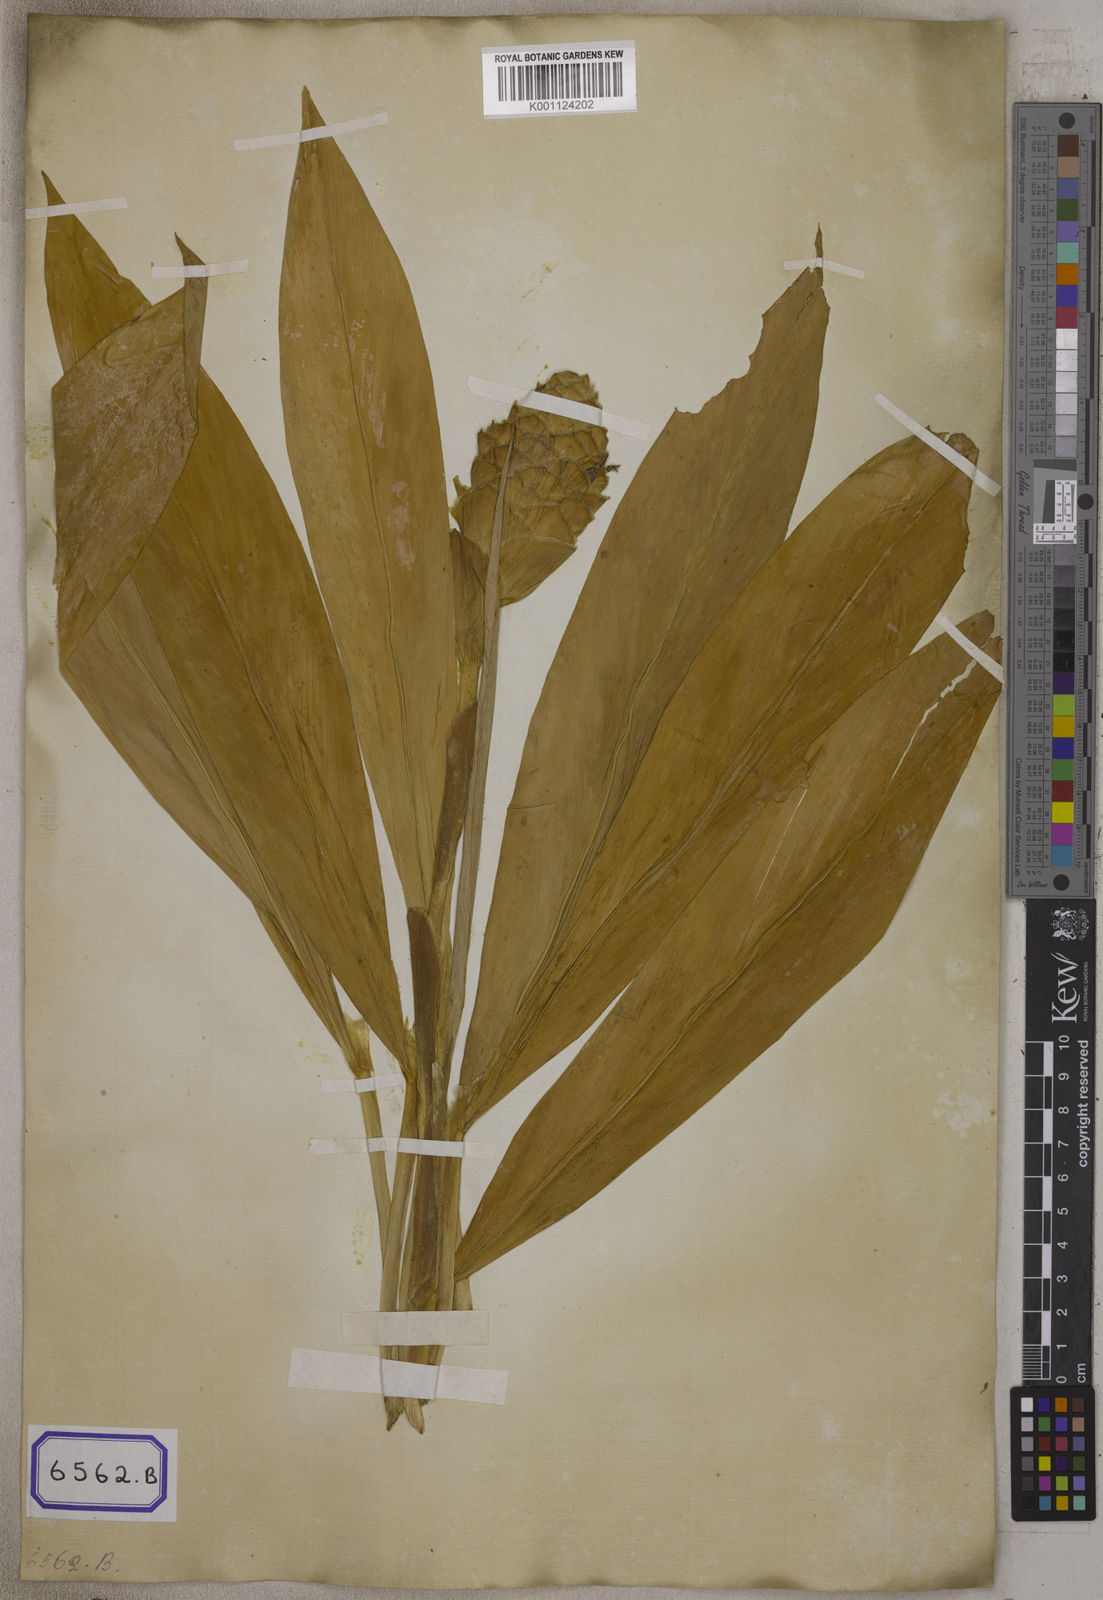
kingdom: Plantae
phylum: Tracheophyta
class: Liliopsida
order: Zingiberales
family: Zingiberaceae
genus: Zingiber
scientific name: Zingiber zerumbet
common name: Bitter ginger
